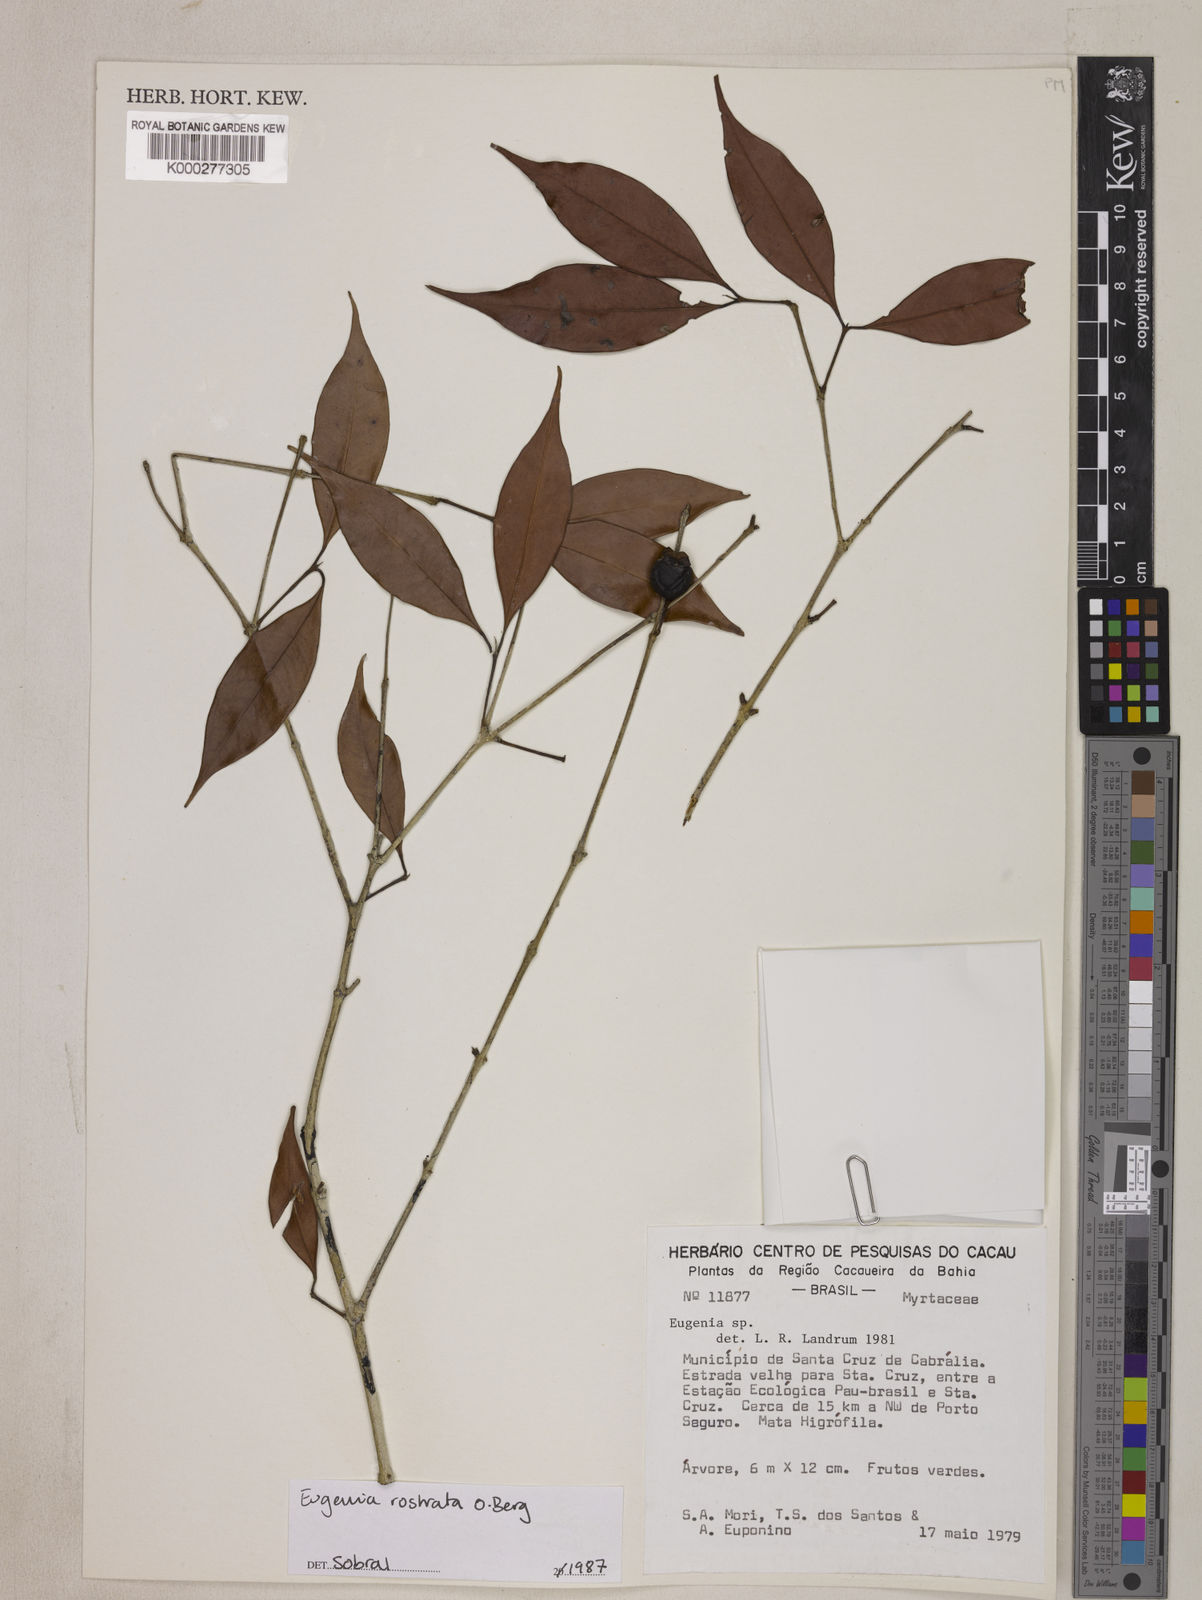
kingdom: Plantae
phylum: Tracheophyta
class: Magnoliopsida
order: Myrtales
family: Myrtaceae
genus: Eugenia
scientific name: Eugenia zuccarinii
